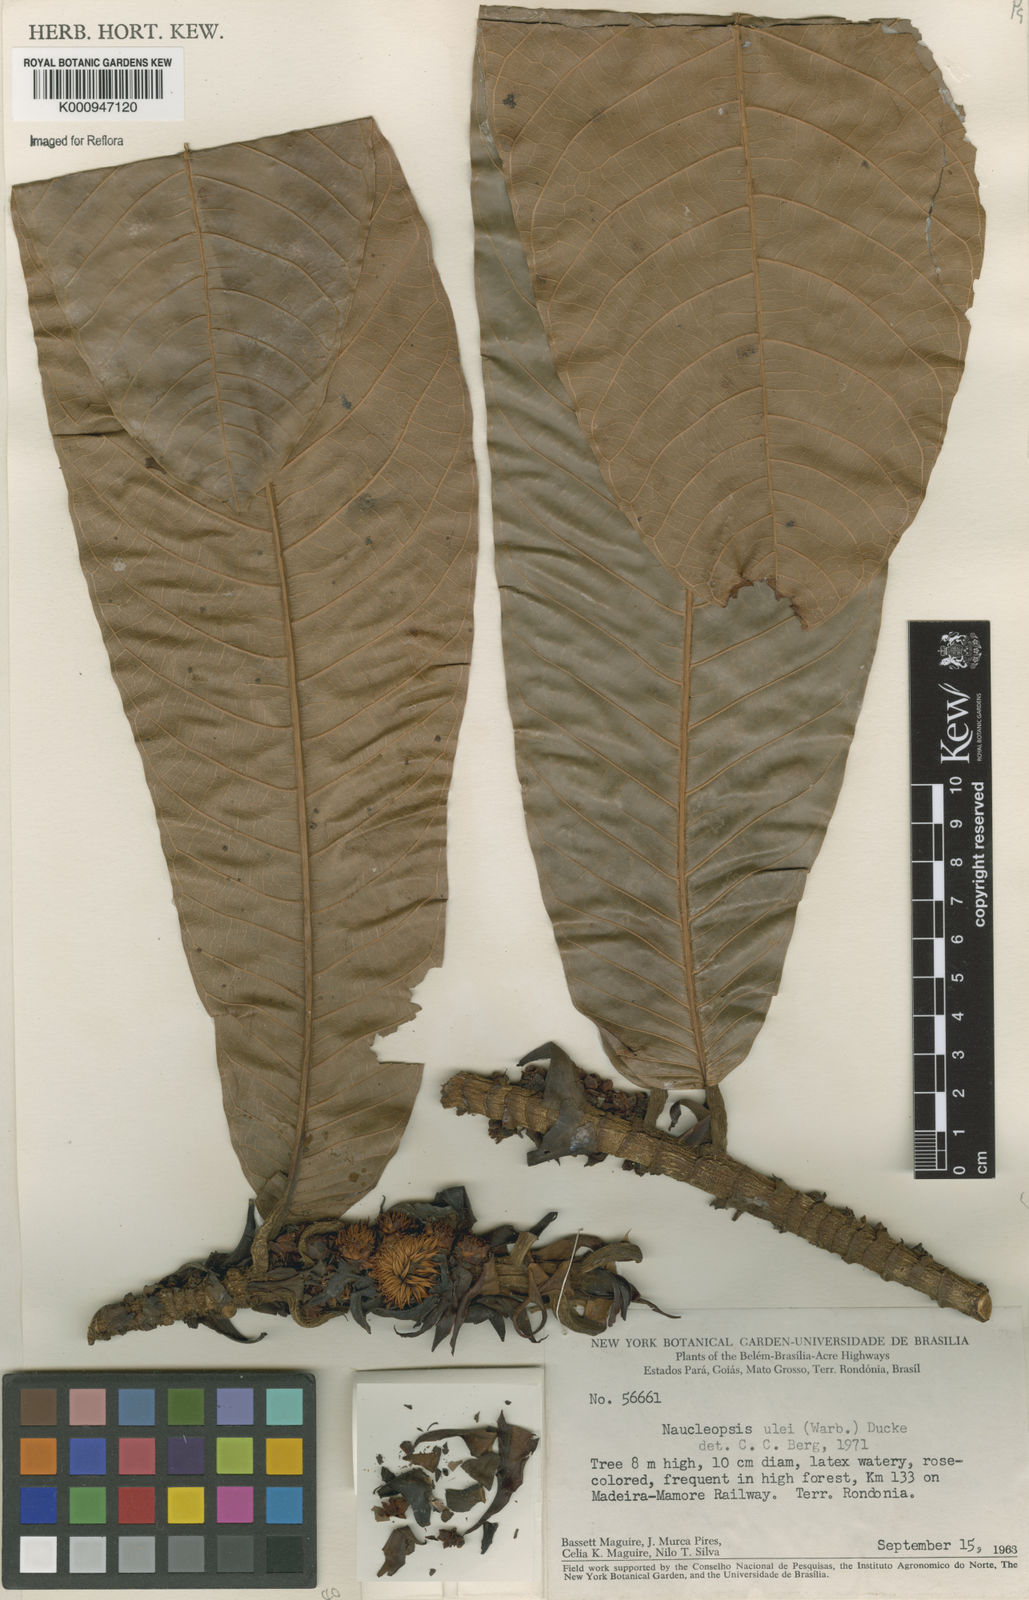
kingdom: Plantae
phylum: Tracheophyta
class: Magnoliopsida
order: Rosales
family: Moraceae
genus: Naucleopsis
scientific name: Naucleopsis ulei
